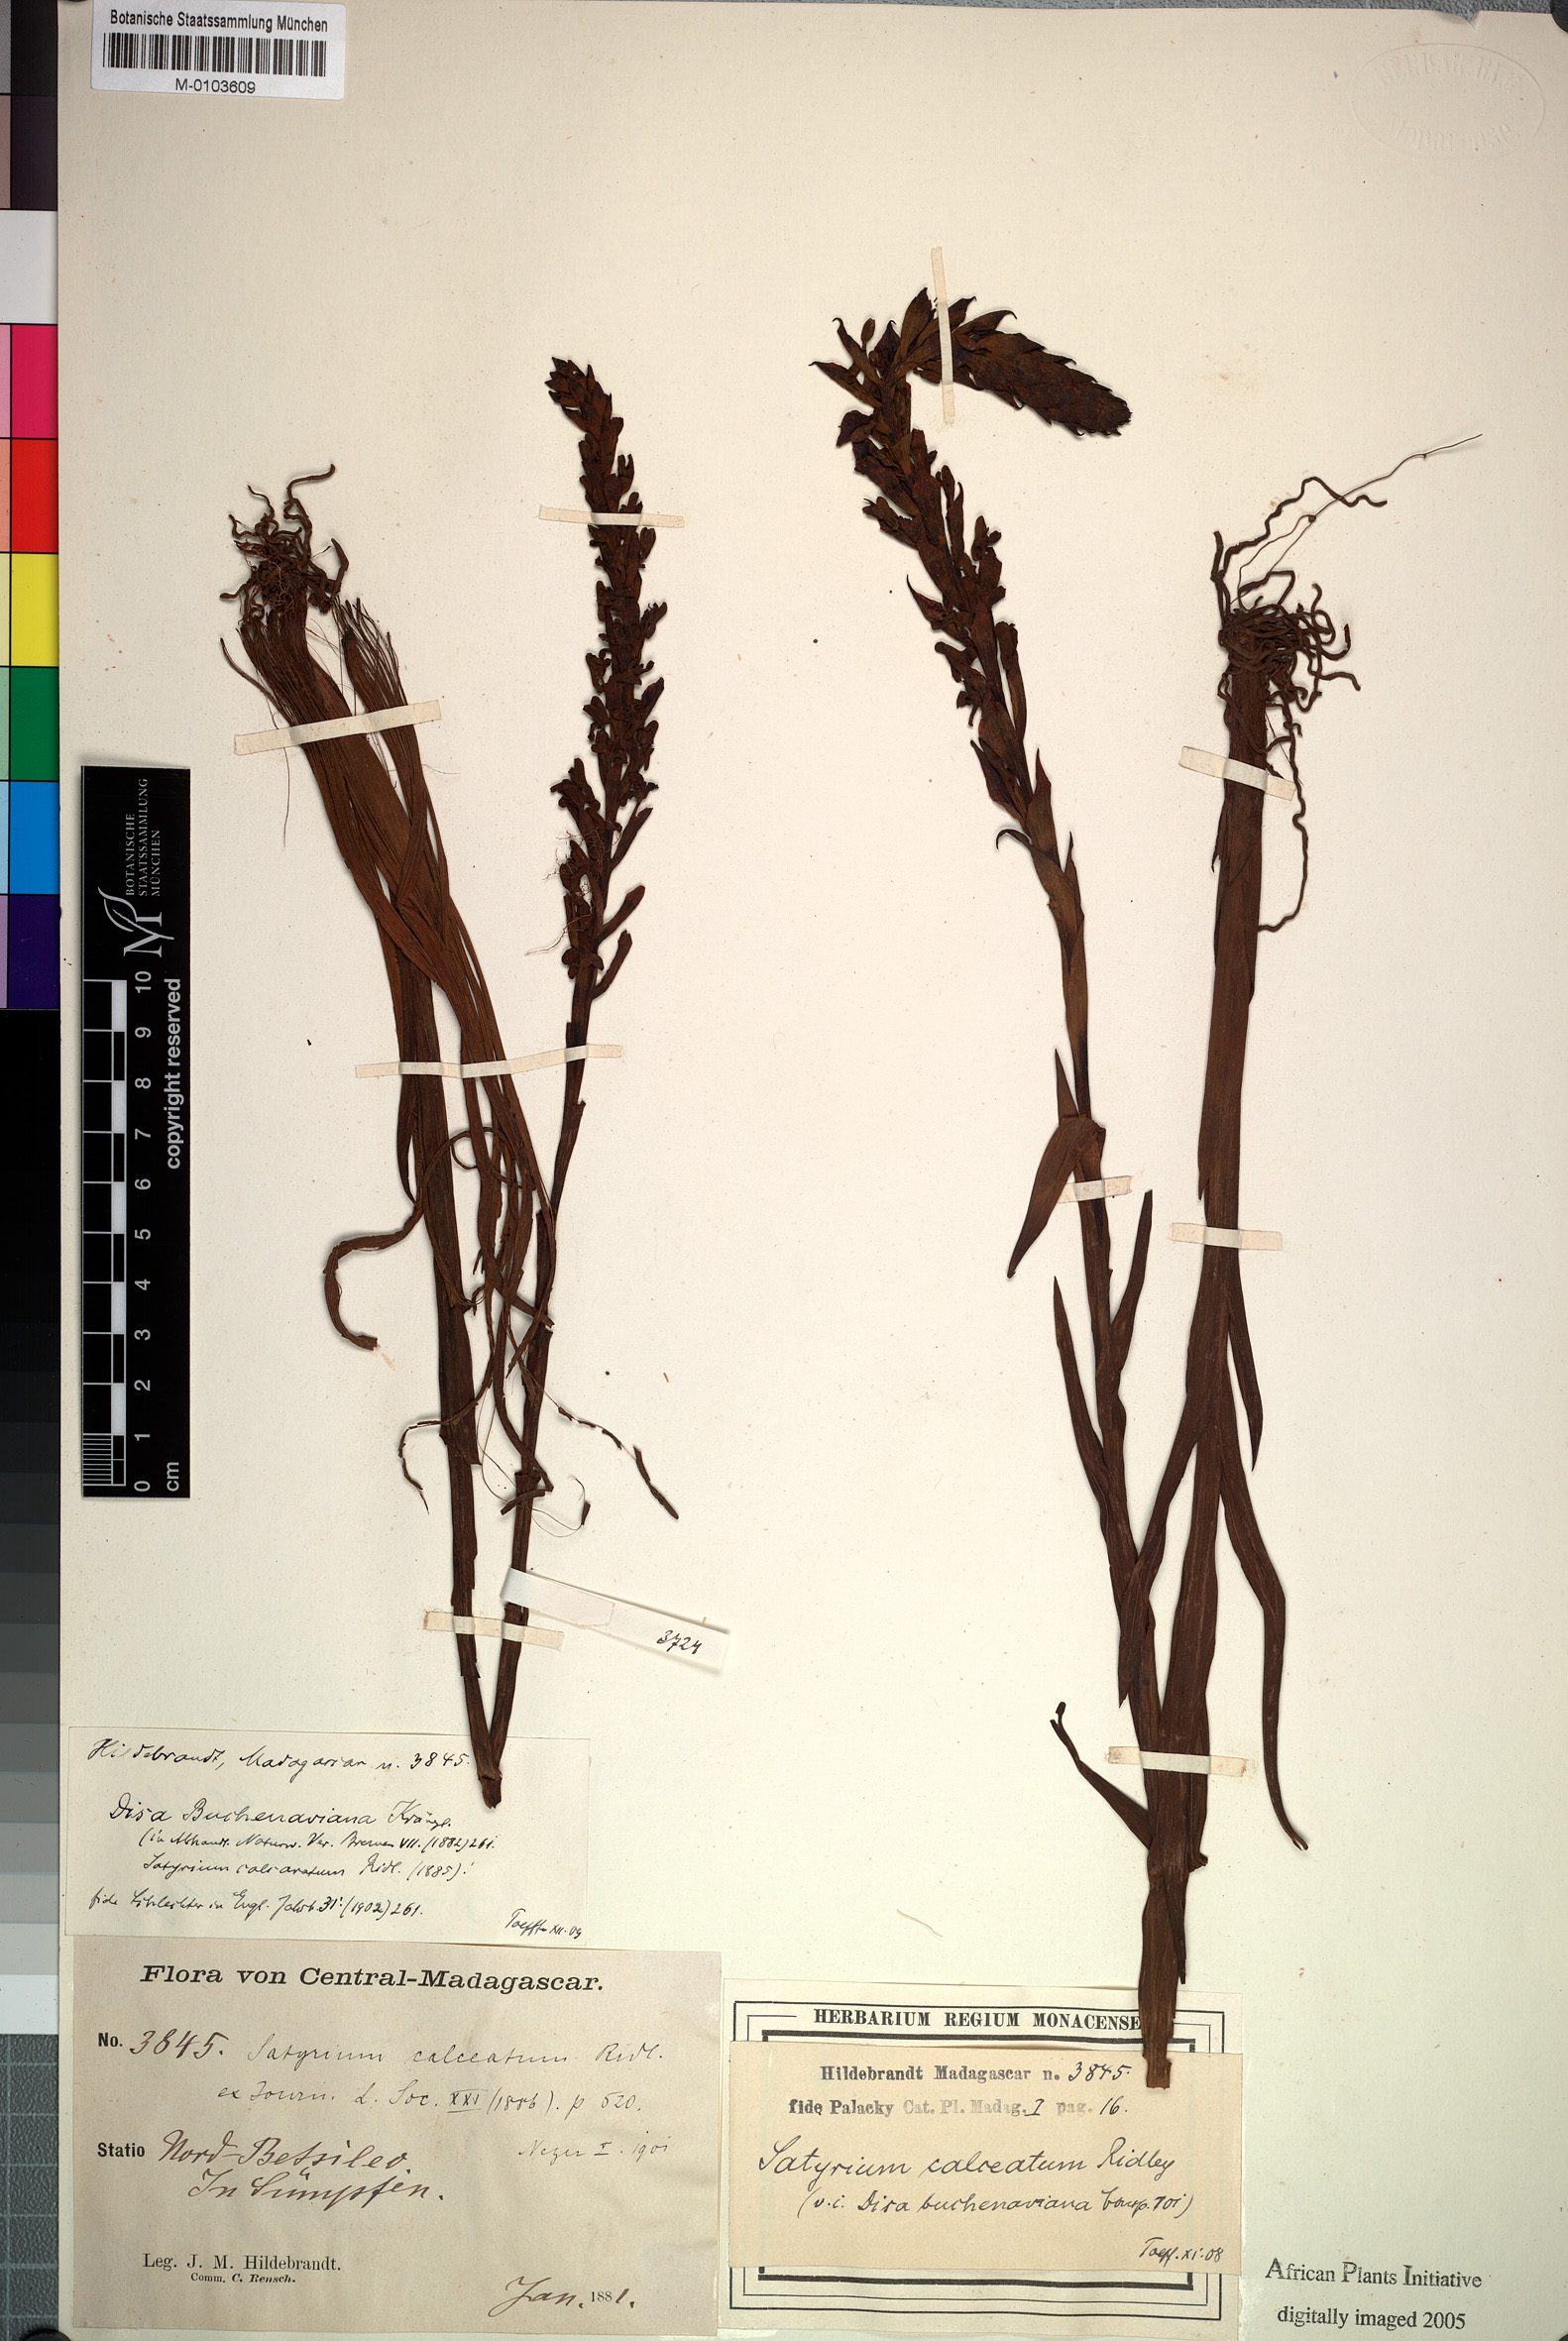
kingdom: Plantae
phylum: Tracheophyta
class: Liliopsida
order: Asparagales
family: Orchidaceae
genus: Disa
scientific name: Disa buchenaviana
